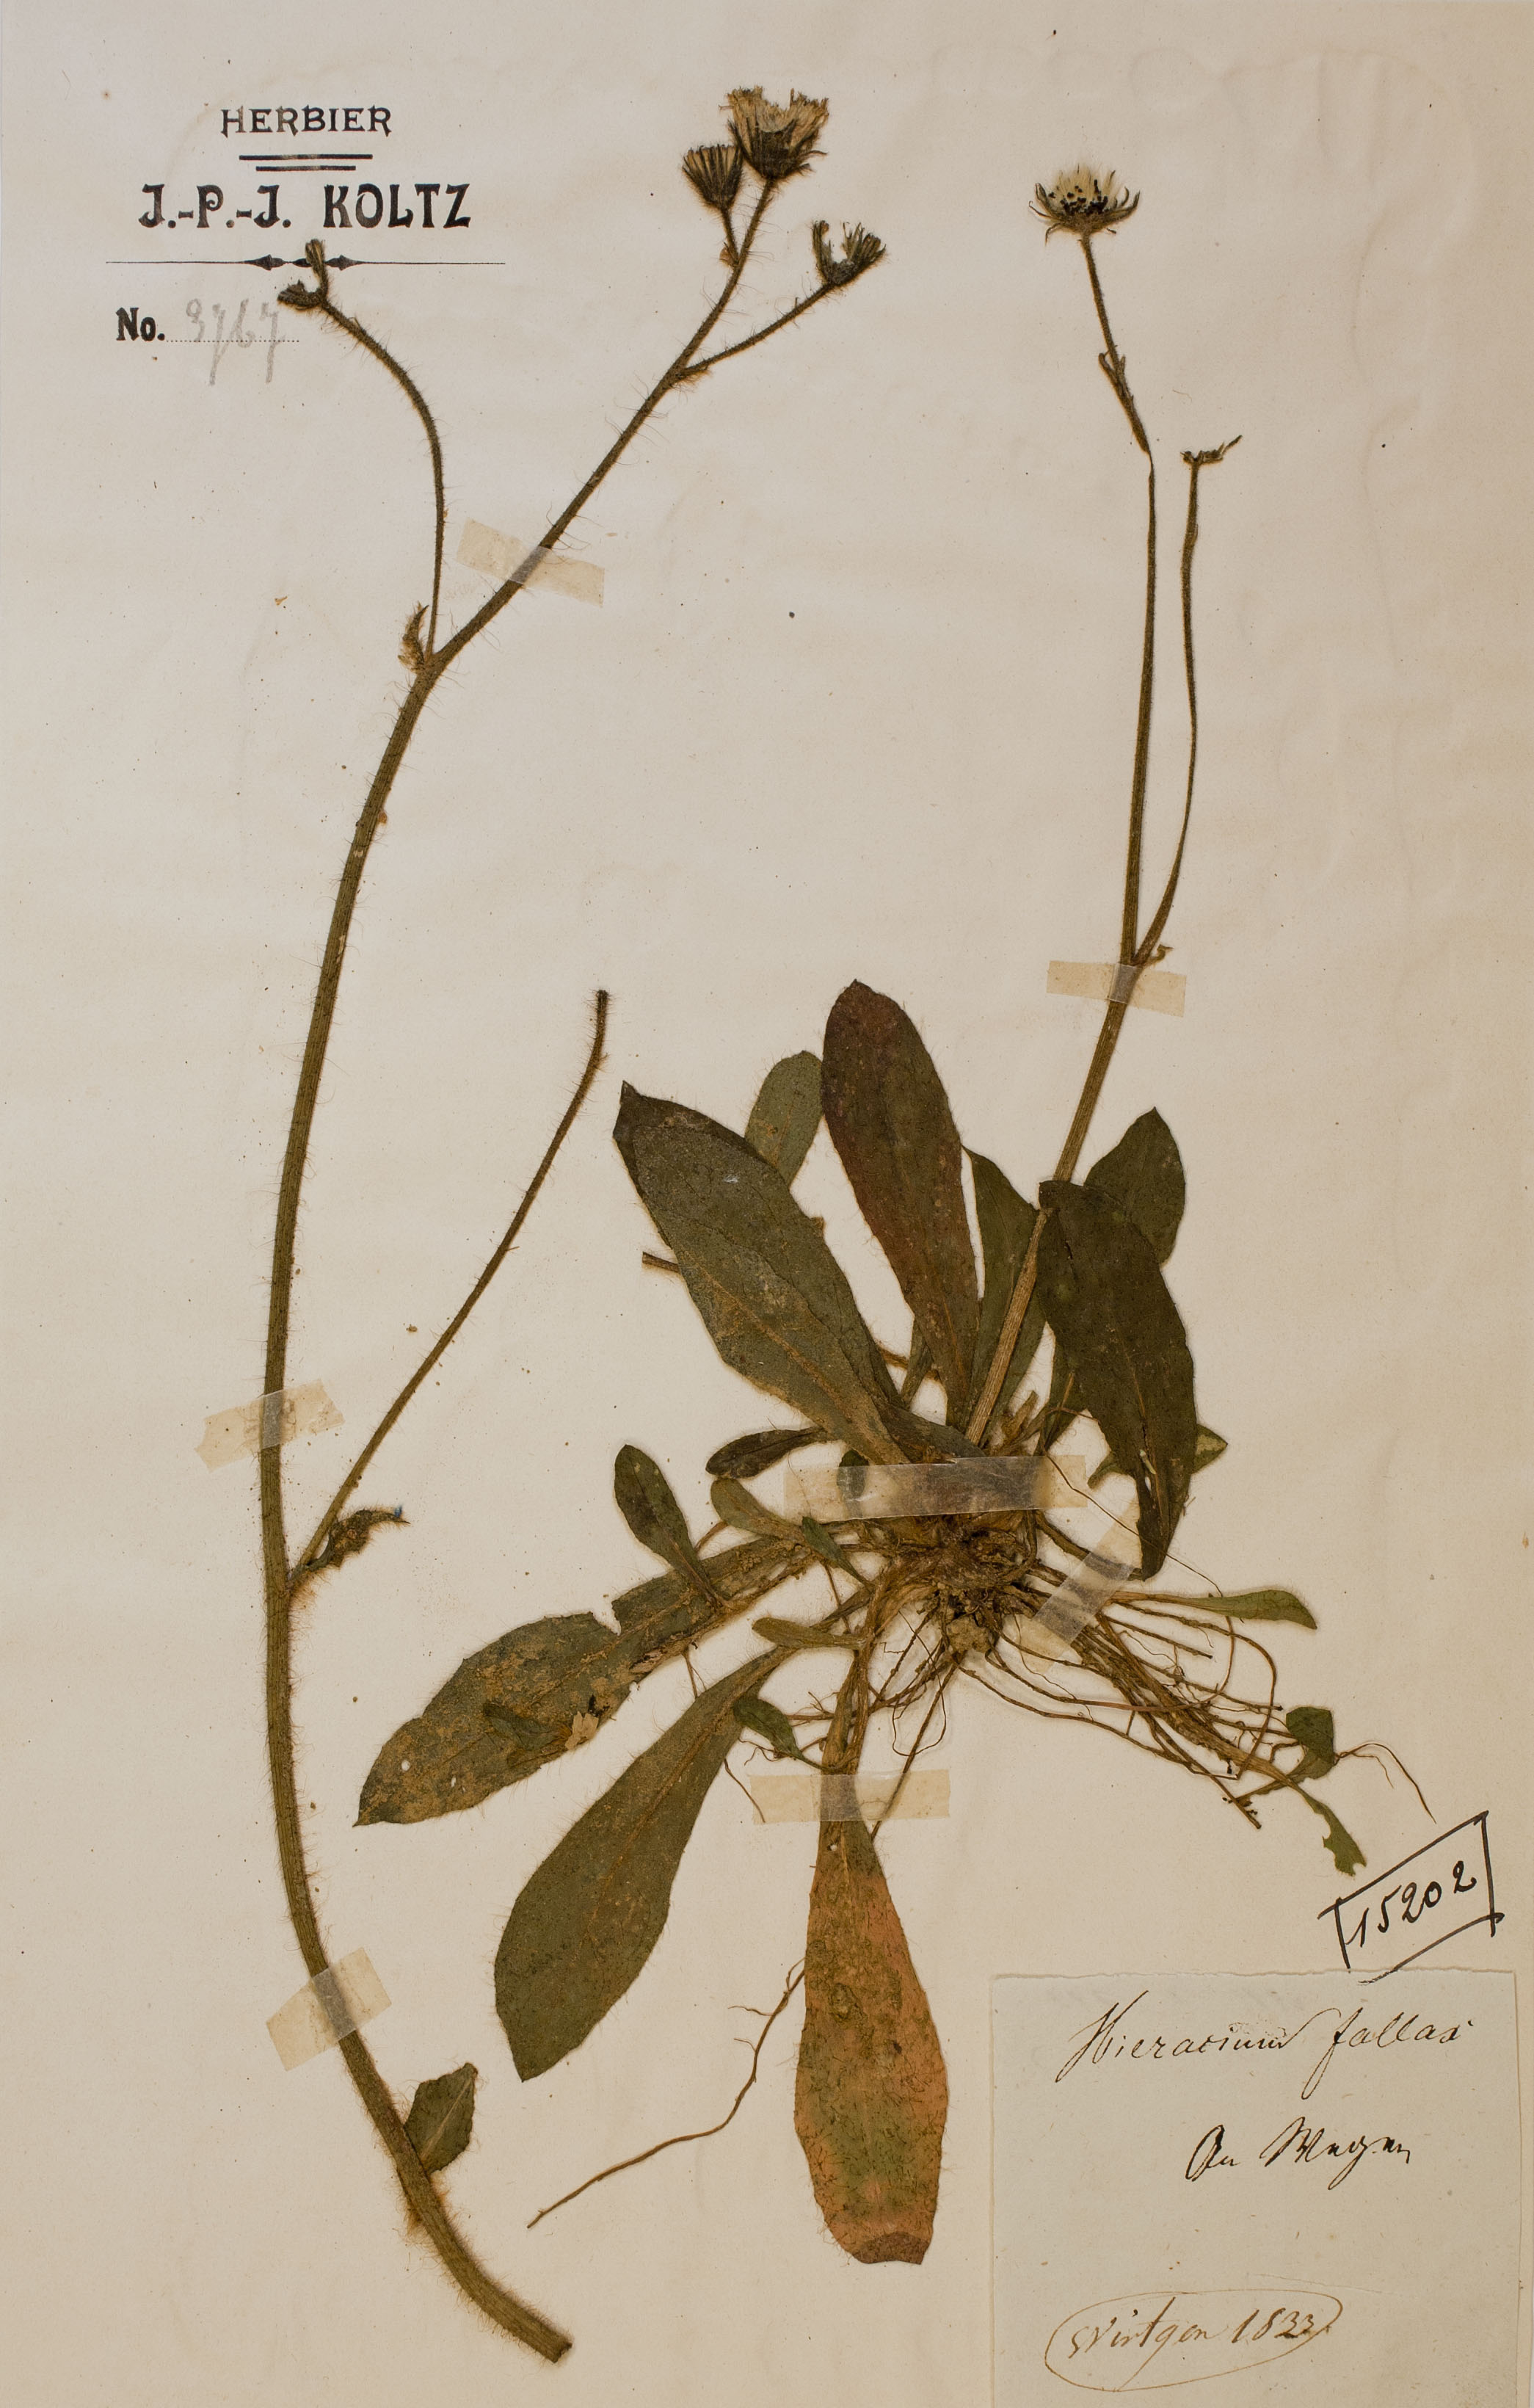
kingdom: Plantae
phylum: Tracheophyta
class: Magnoliopsida
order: Asterales
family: Asteraceae
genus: Pilosella
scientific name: Pilosella fallax
